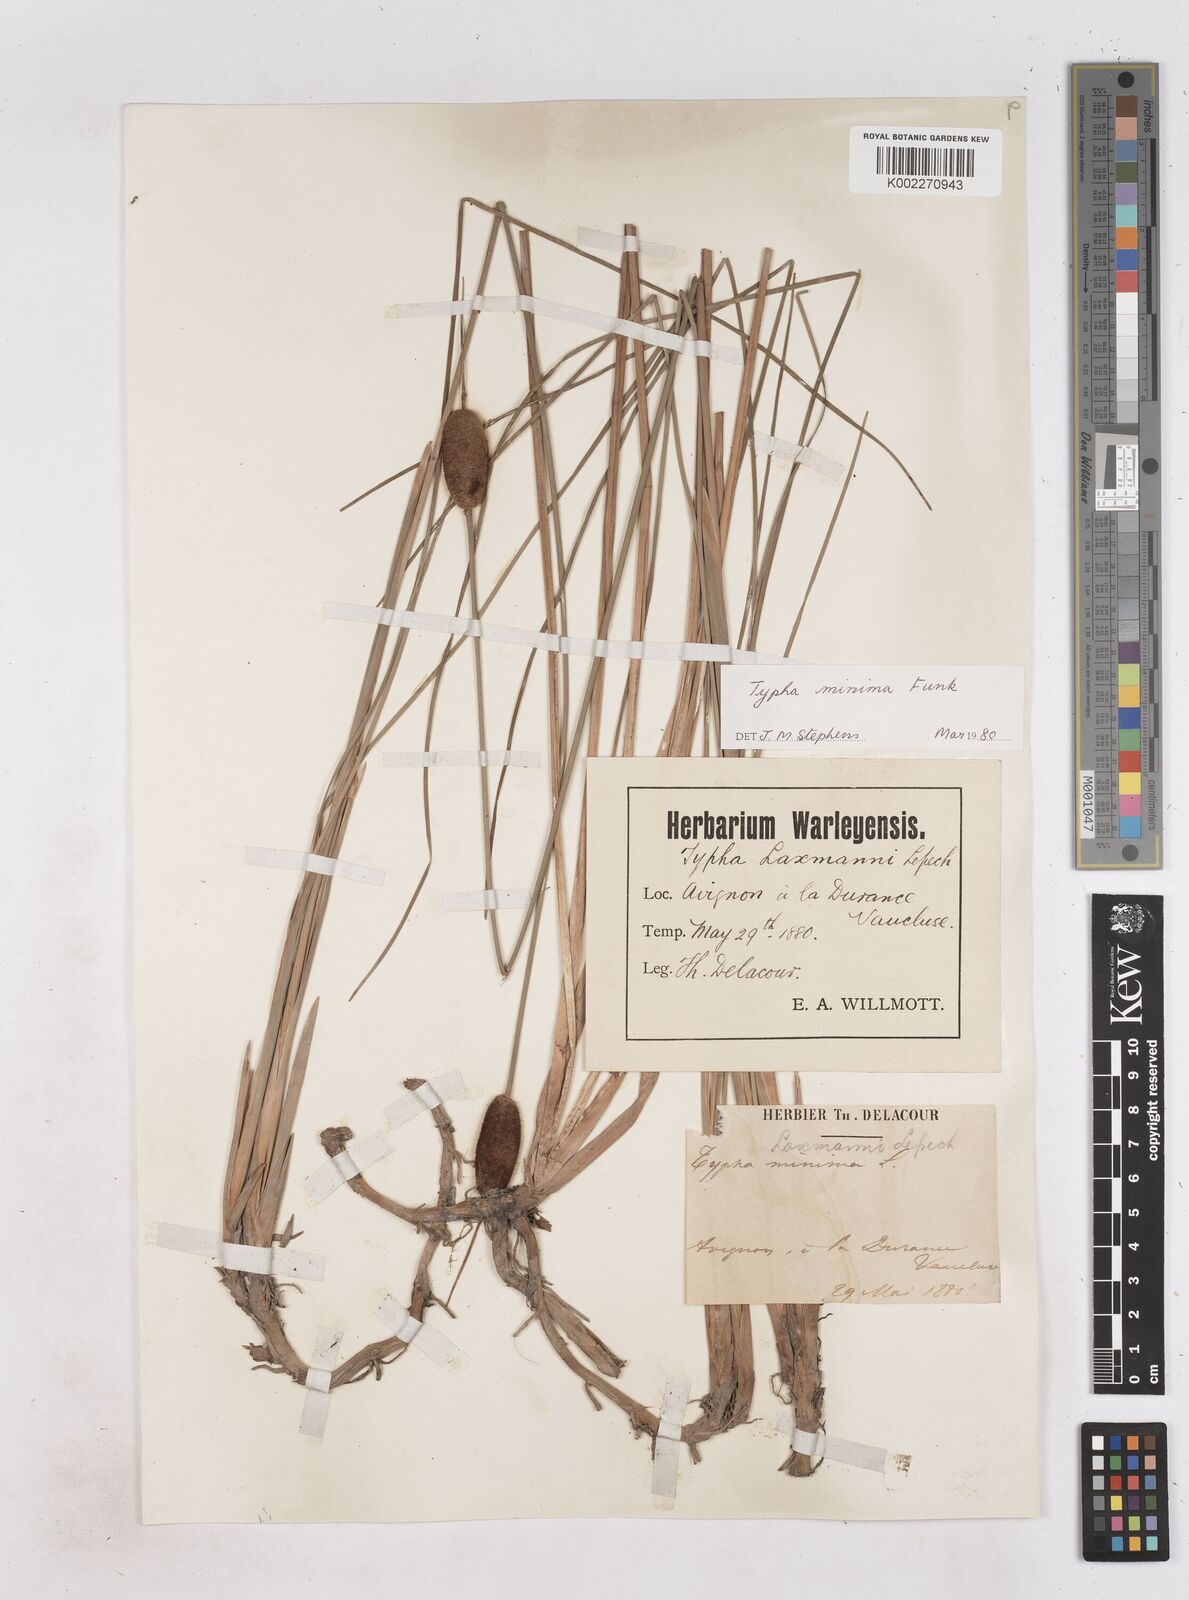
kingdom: Plantae
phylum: Tracheophyta
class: Liliopsida
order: Poales
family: Typhaceae
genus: Typha
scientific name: Typha
